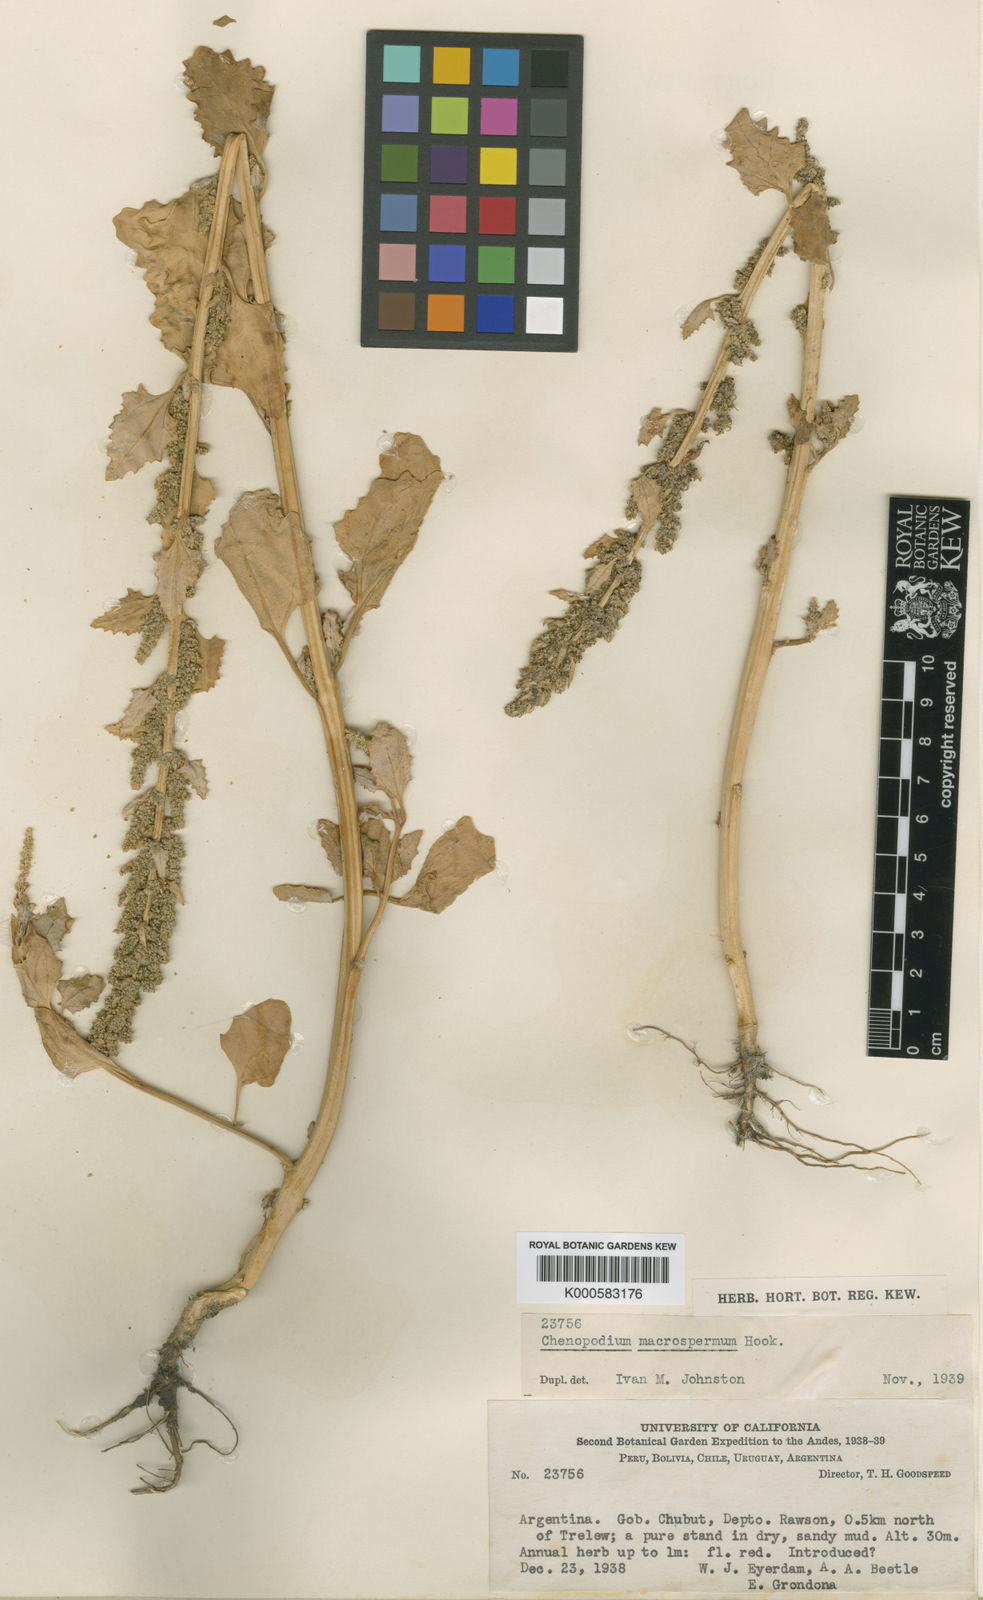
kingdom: Plantae
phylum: Tracheophyta
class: Magnoliopsida
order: Caryophyllales
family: Amaranthaceae
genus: Oxybasis
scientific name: Oxybasis macrosperma
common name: Large-seed goosefoot
